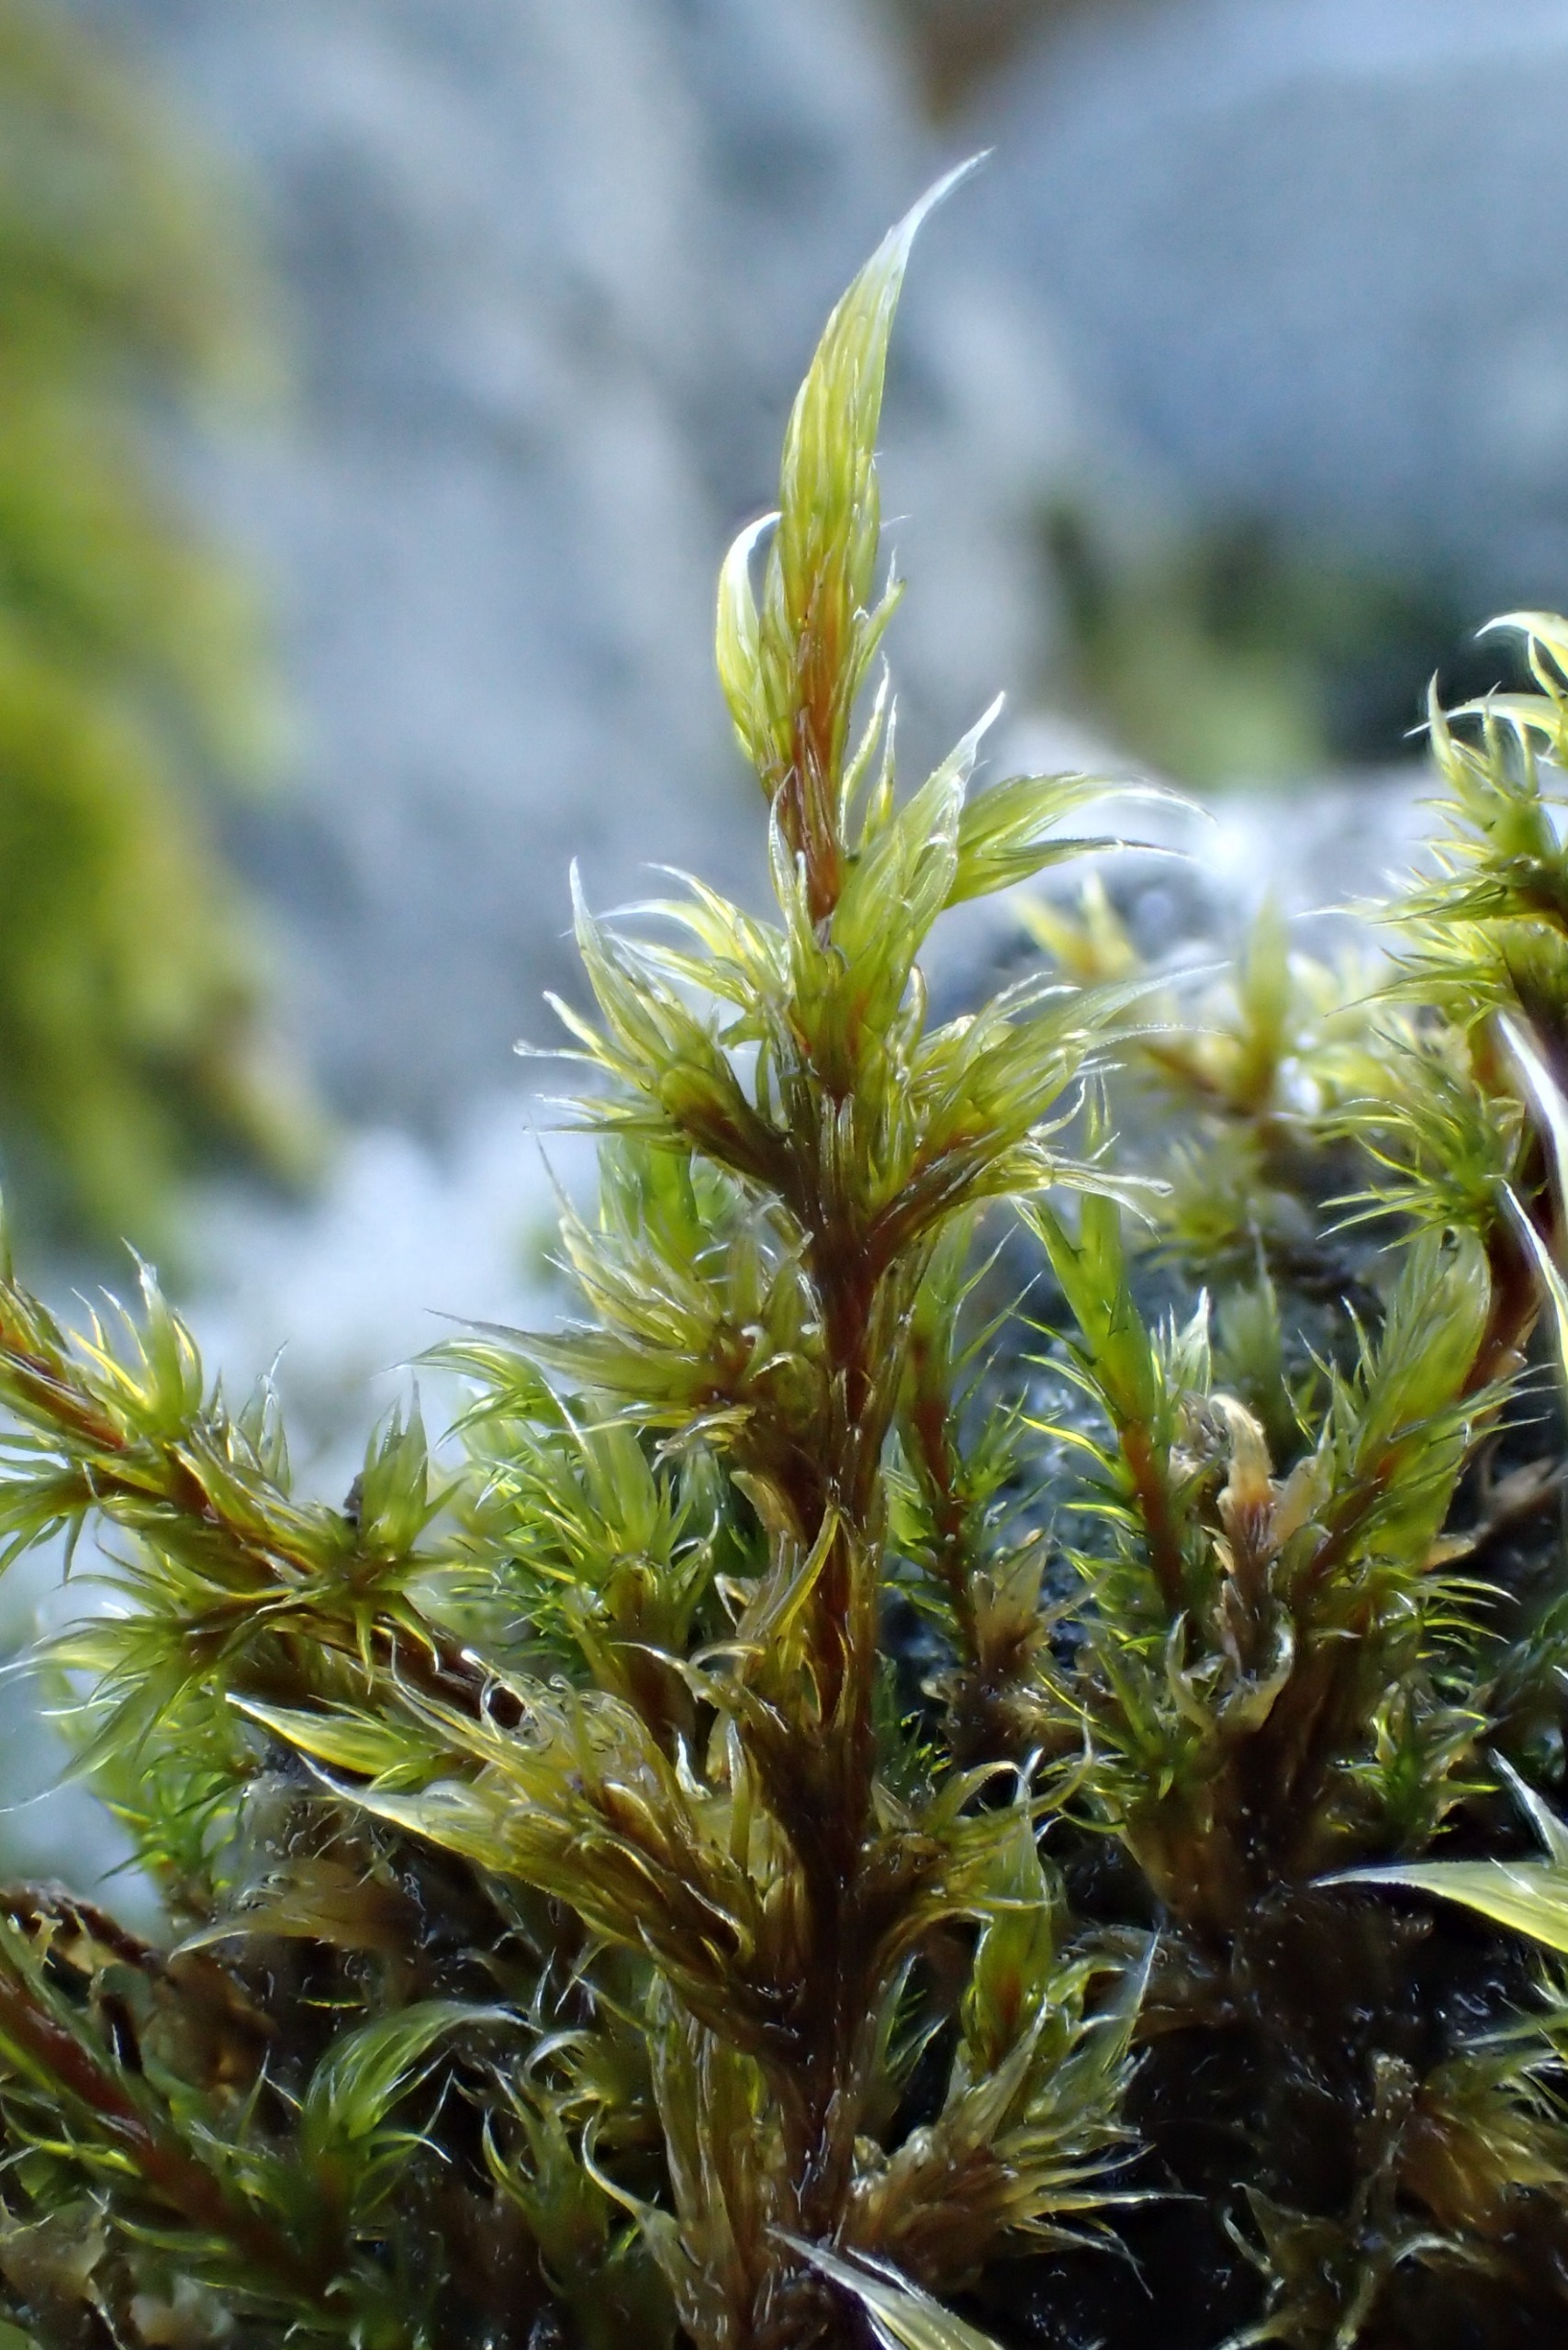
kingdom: Plantae
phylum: Bryophyta
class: Bryopsida
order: Grimmiales
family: Grimmiaceae
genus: Racomitrium
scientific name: Racomitrium lanuginosum
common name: Stor børstemos
